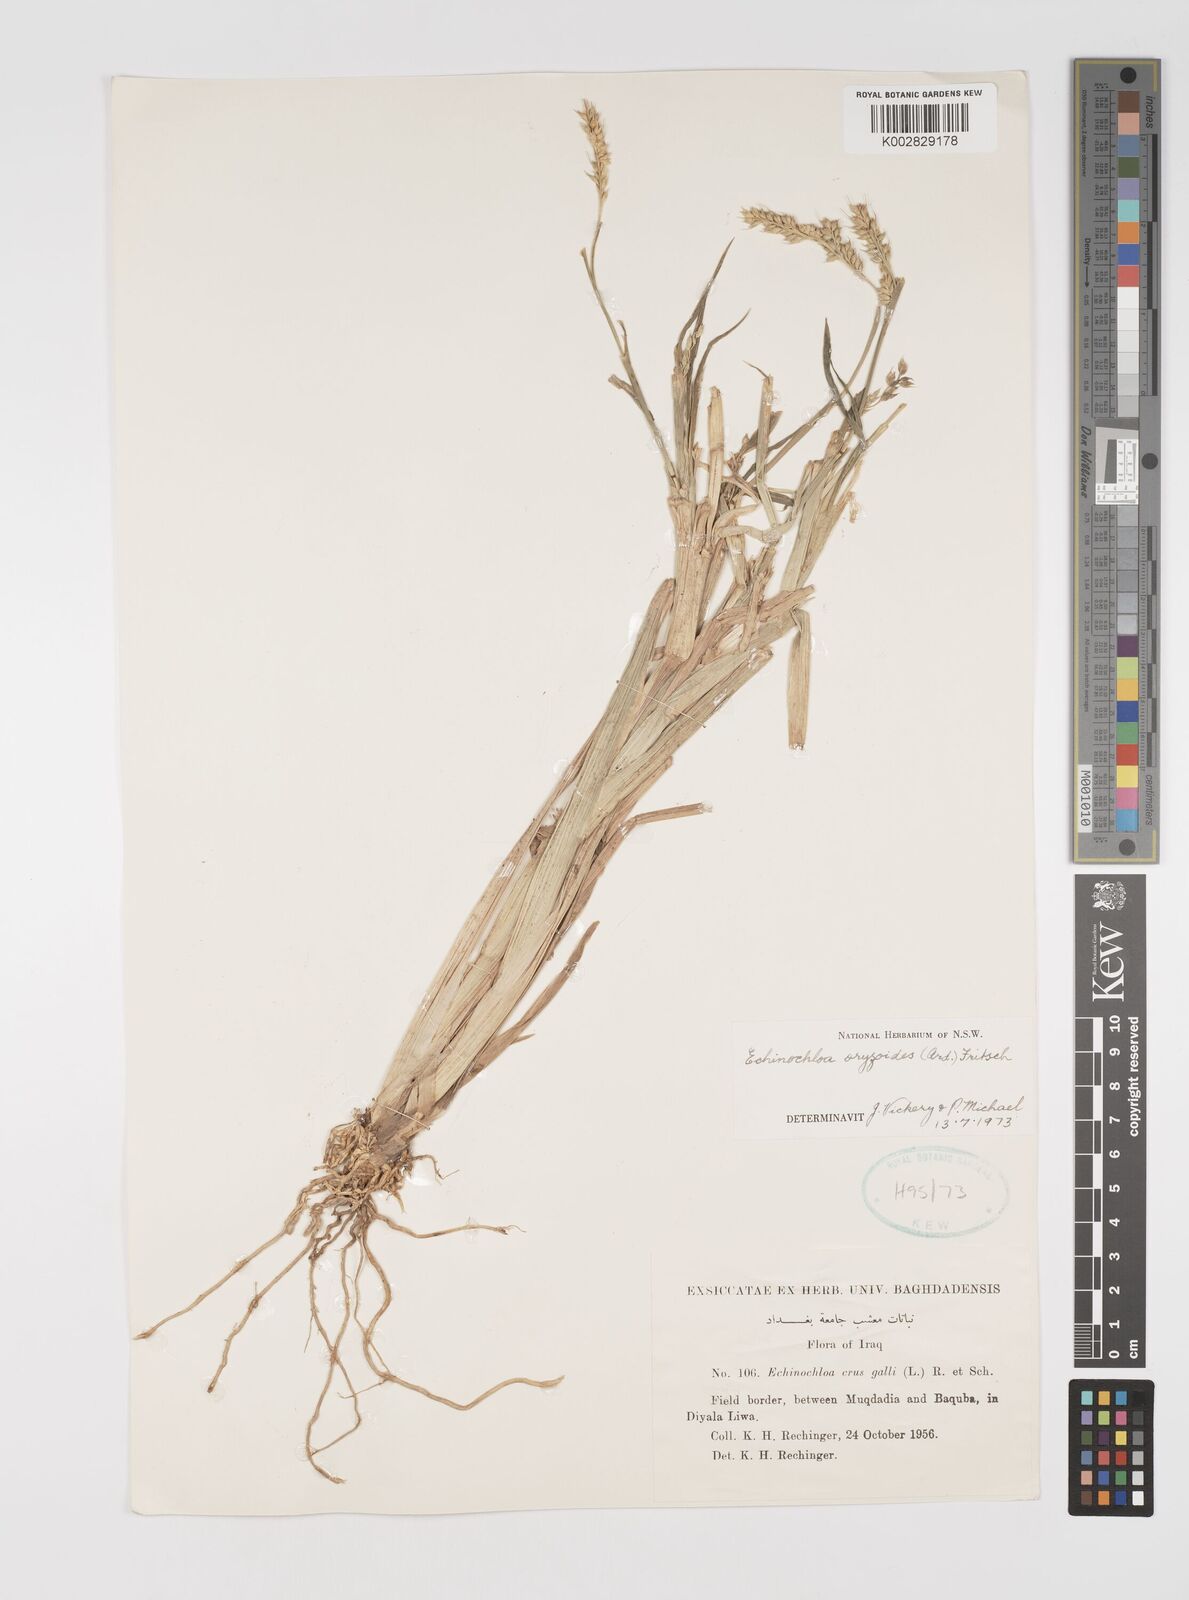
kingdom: Plantae
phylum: Tracheophyta
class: Liliopsida
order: Poales
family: Poaceae
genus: Echinochloa
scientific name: Echinochloa crus-galli
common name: Cockspur
